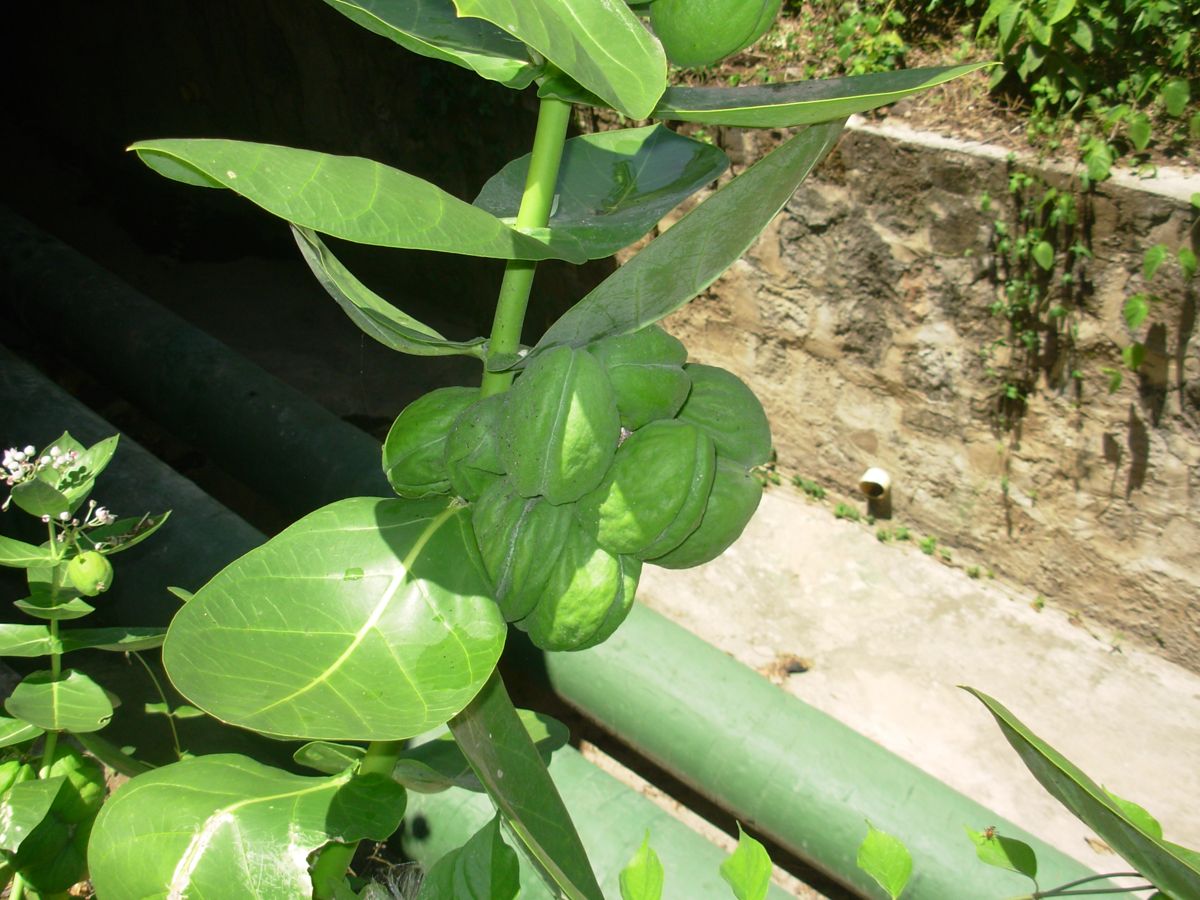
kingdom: Plantae
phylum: Tracheophyta
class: Magnoliopsida
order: Gentianales
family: Apocynaceae
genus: Calotropis
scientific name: Calotropis procera
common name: Roostertree
